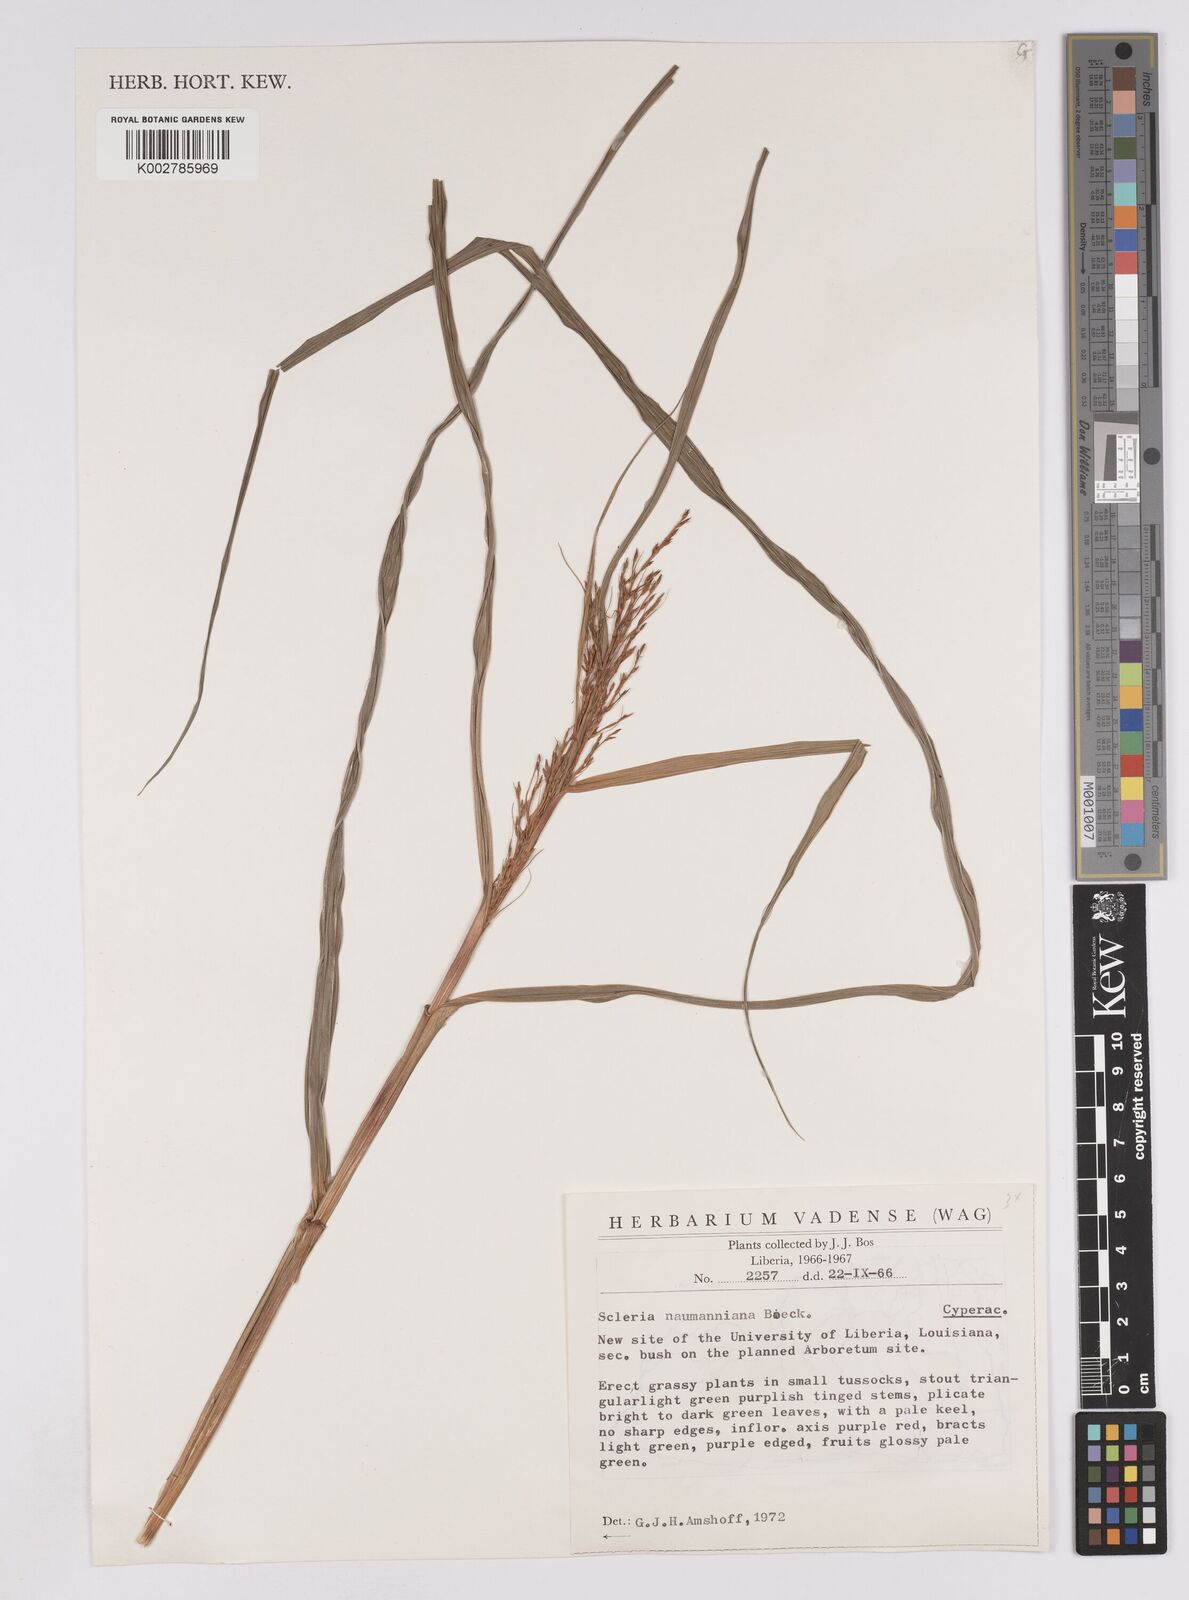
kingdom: Plantae
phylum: Tracheophyta
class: Liliopsida
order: Poales
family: Cyperaceae
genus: Scleria
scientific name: Scleria naumanniana
